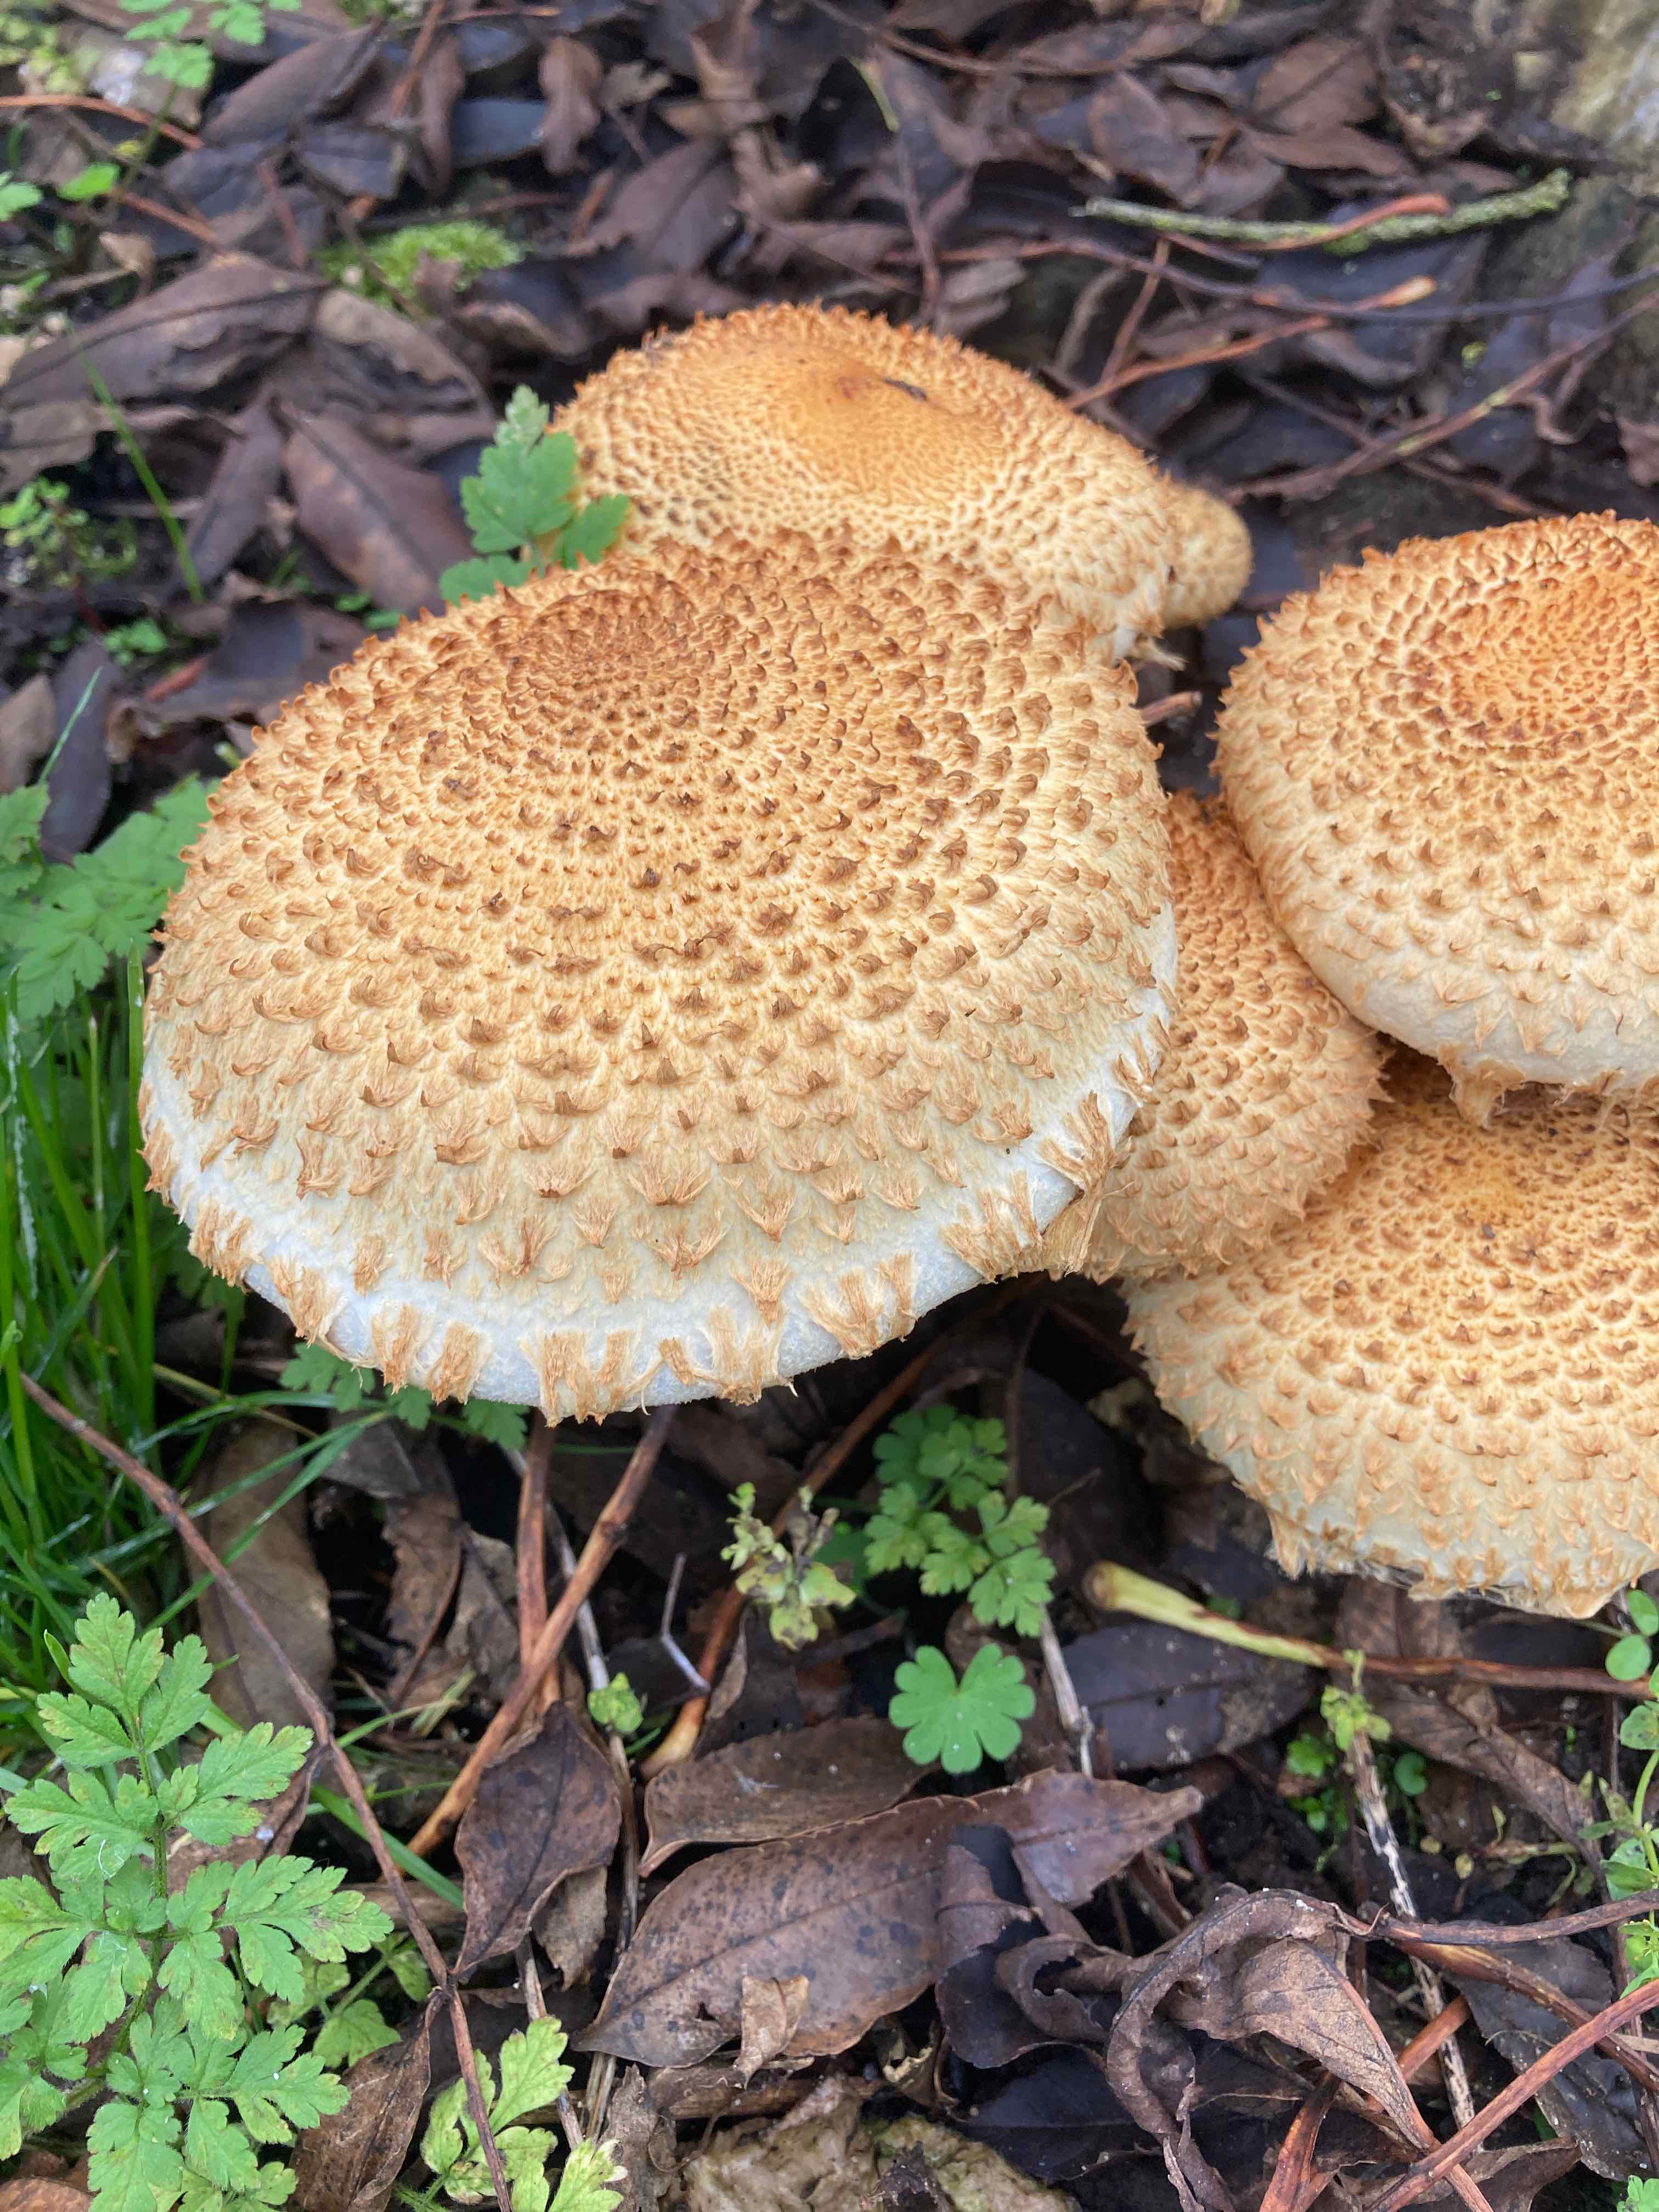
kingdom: Fungi
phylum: Basidiomycota
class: Agaricomycetes
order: Agaricales
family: Strophariaceae
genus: Pholiota
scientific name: Pholiota squarrosa
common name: krumskællet skælhat
